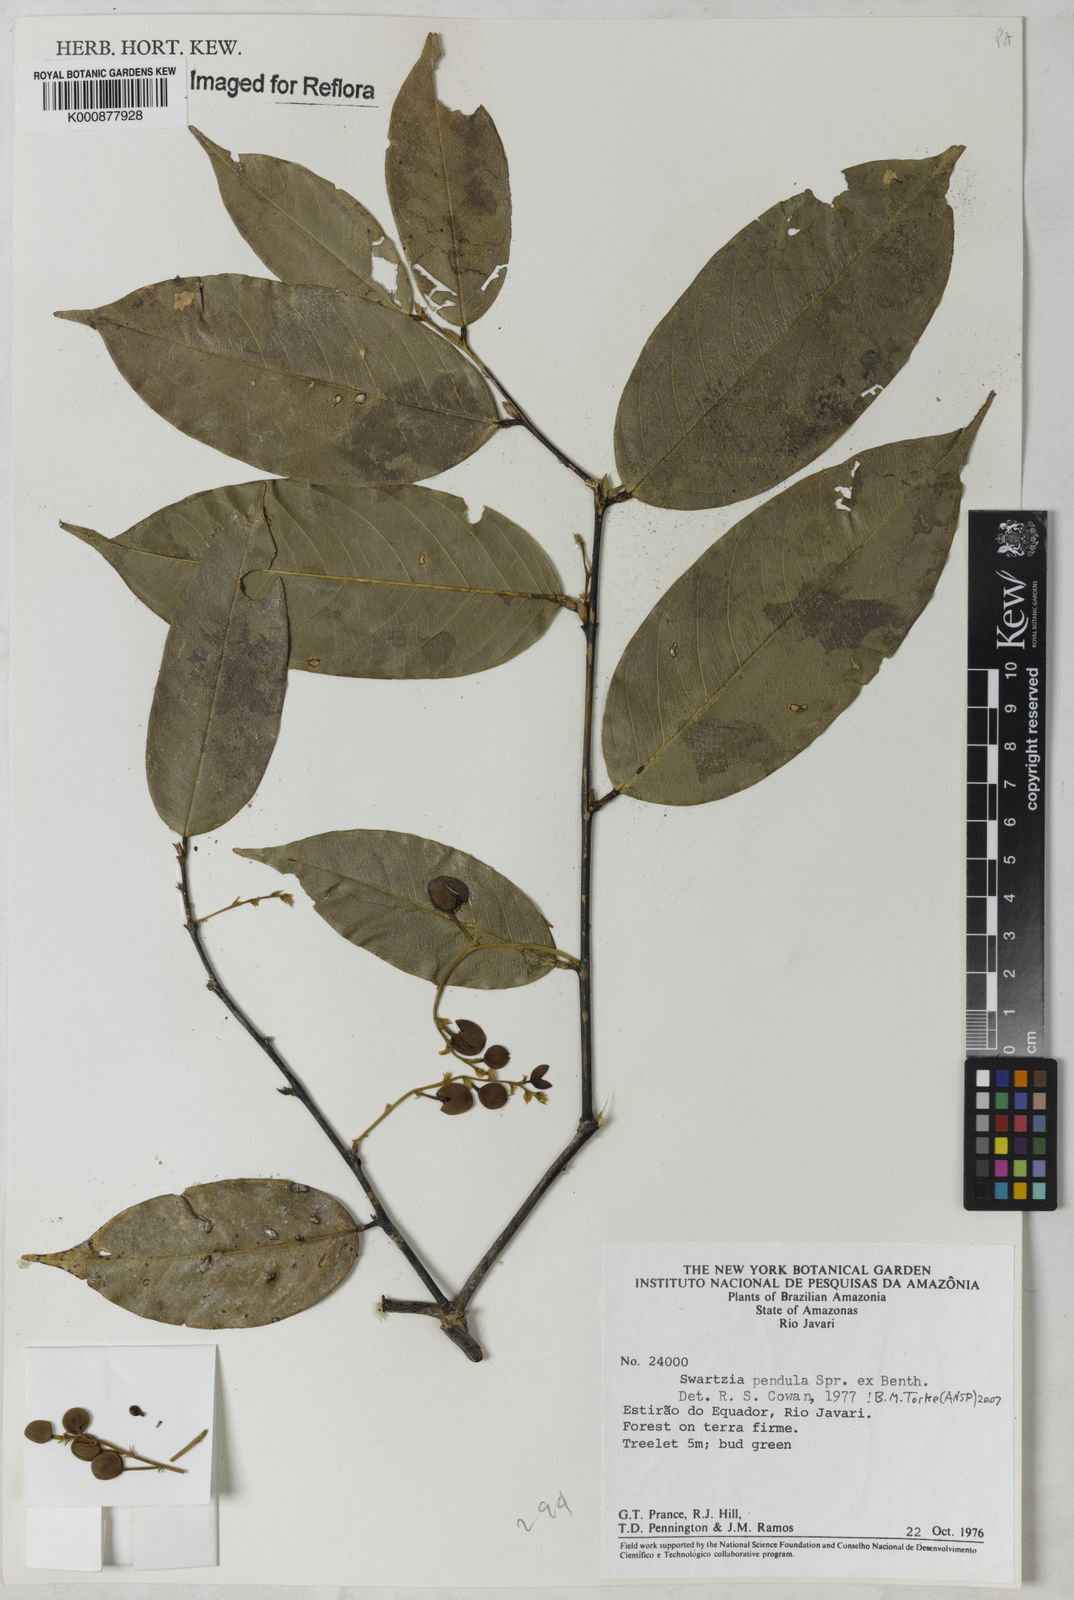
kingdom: Plantae
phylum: Tracheophyta
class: Magnoliopsida
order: Fabales
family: Fabaceae
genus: Swartzia
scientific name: Swartzia pendula
